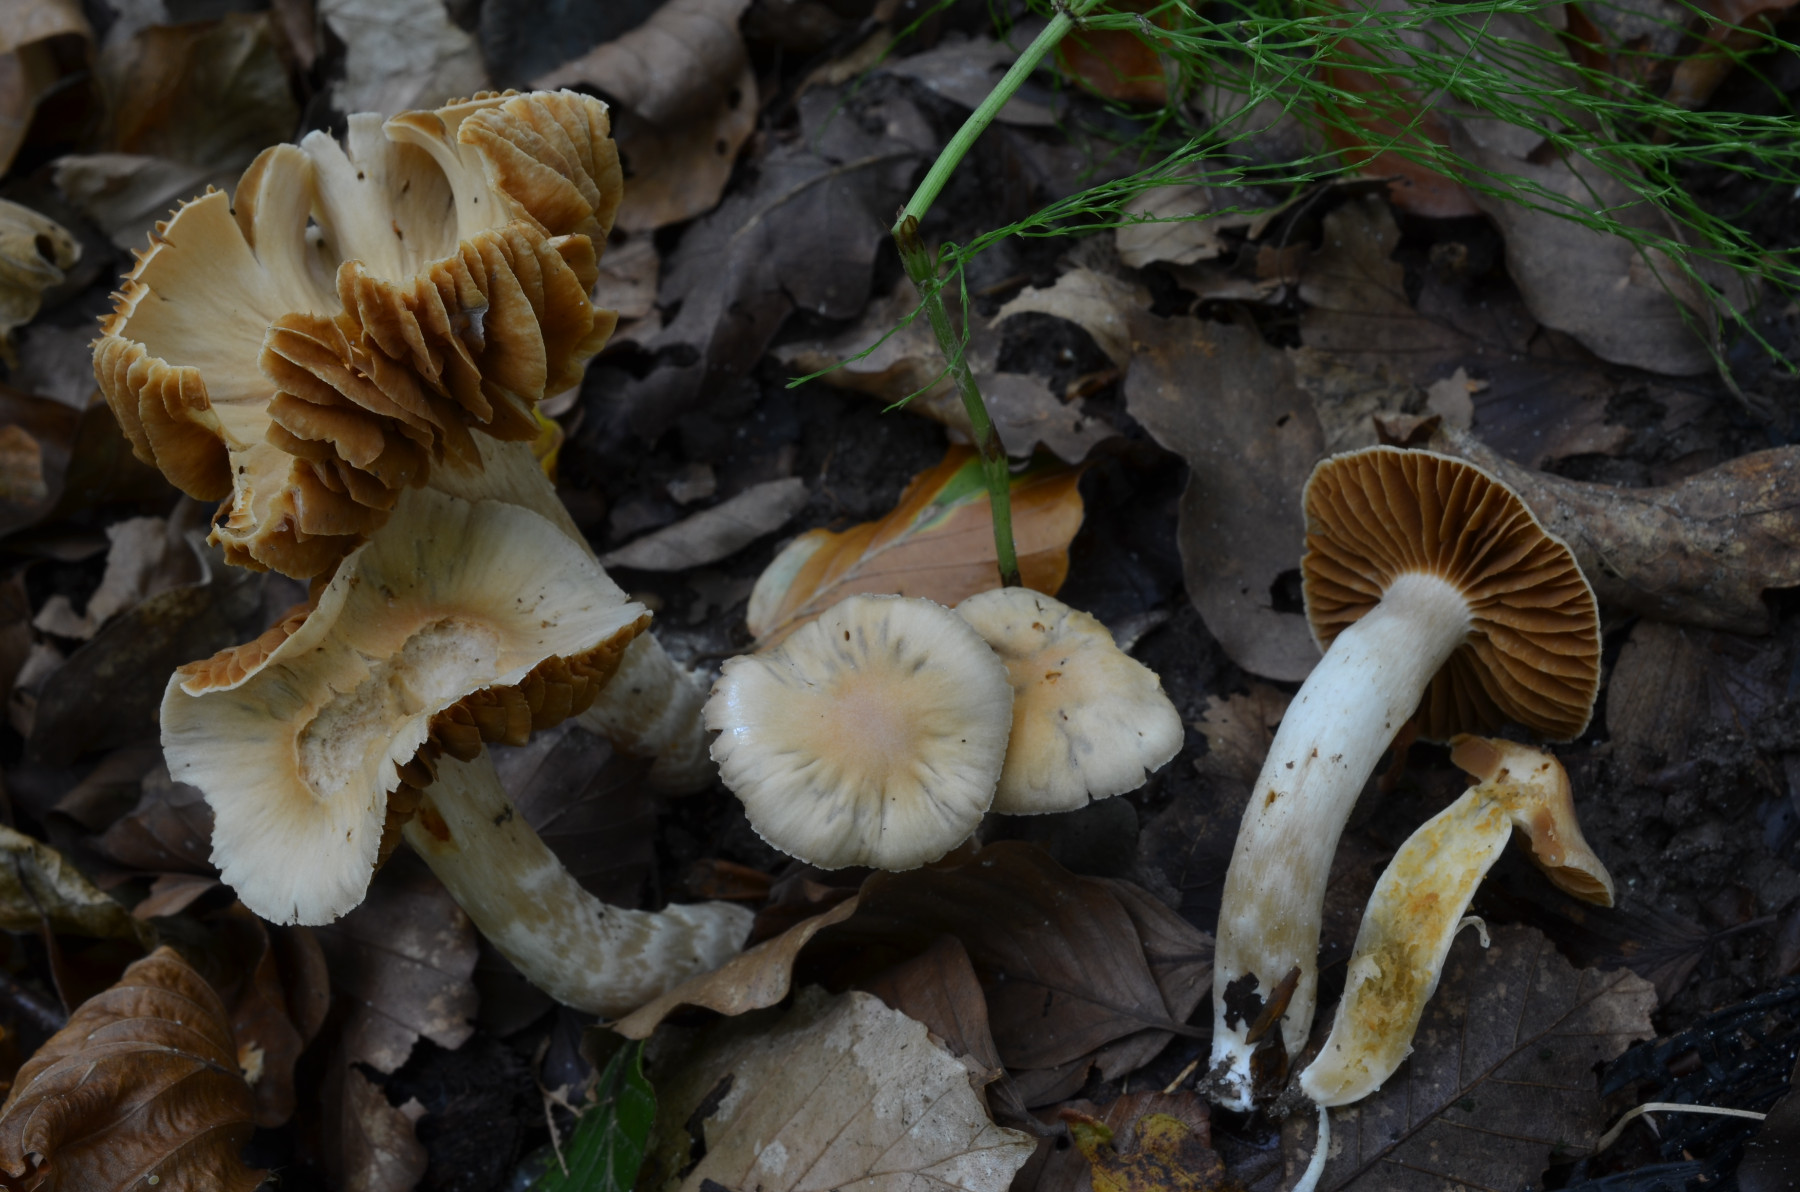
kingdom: Fungi
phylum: Basidiomycota
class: Agaricomycetes
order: Agaricales
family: Cortinariaceae
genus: Cortinarius
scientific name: Cortinarius masseei
